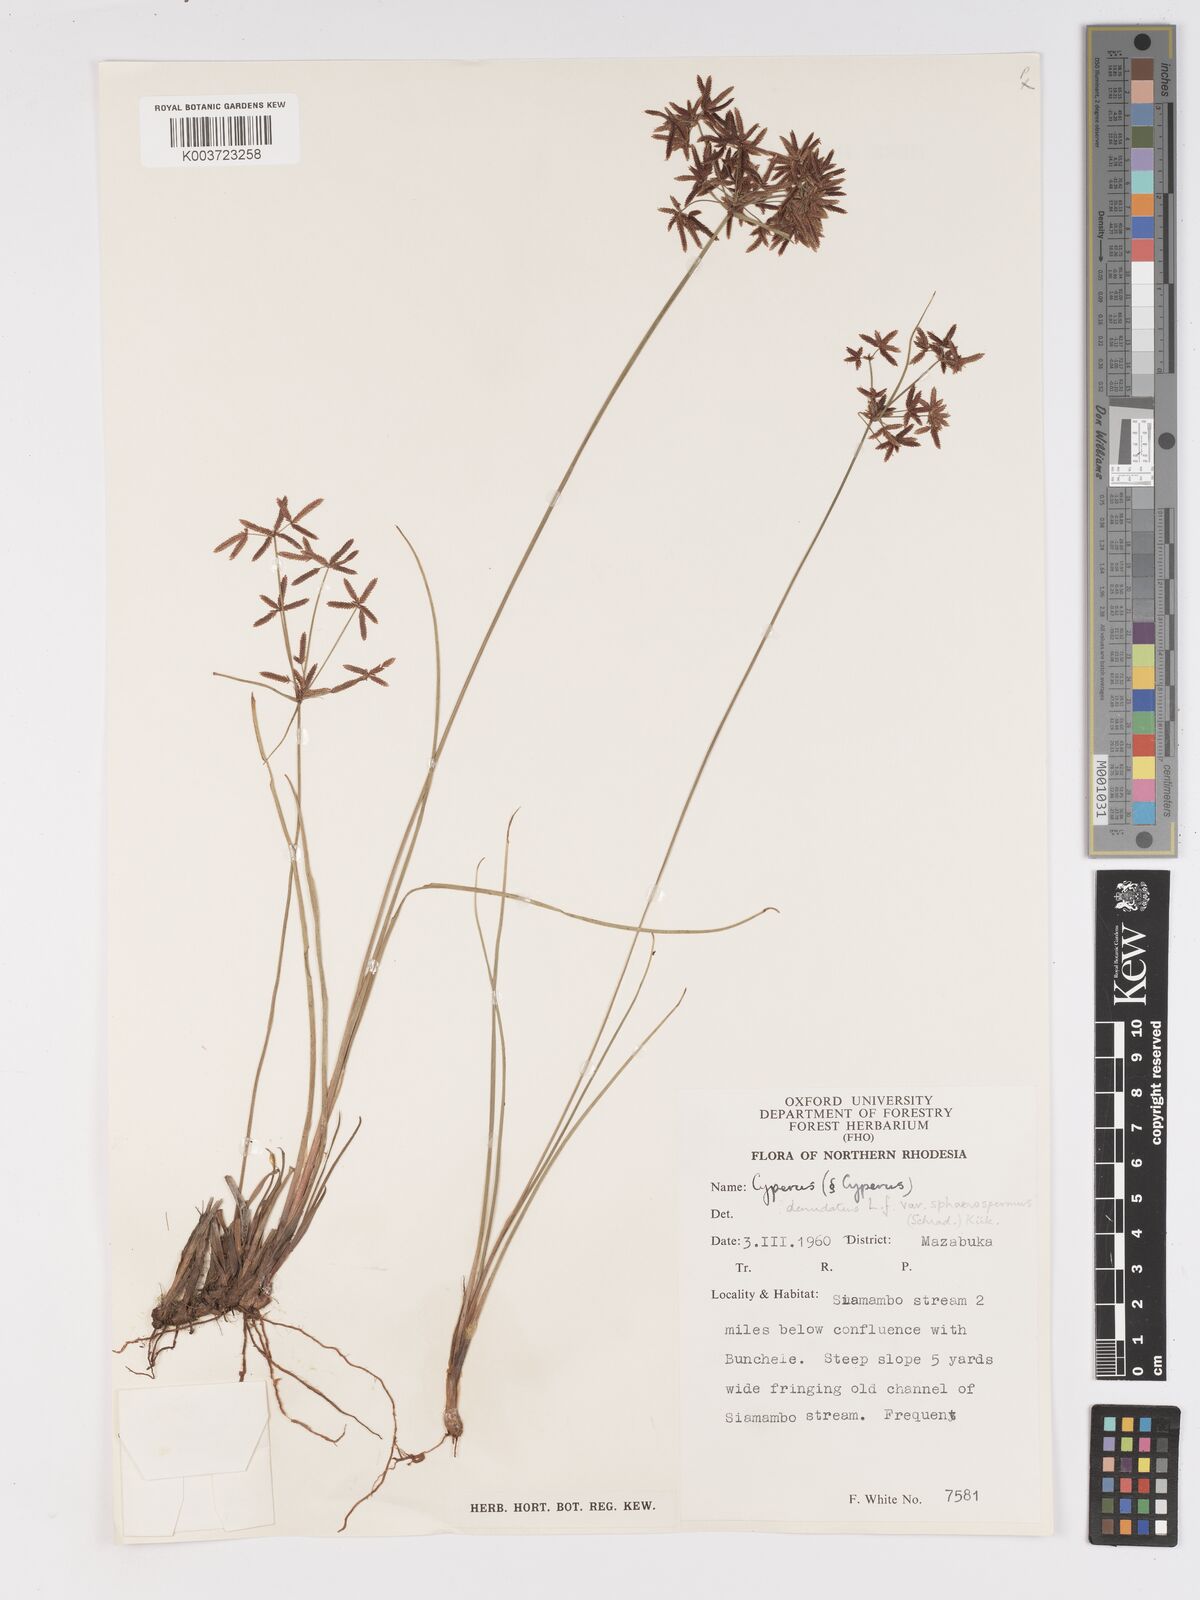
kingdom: Plantae
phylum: Tracheophyta
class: Liliopsida
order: Poales
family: Cyperaceae
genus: Cyperus
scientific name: Cyperus denudatus
